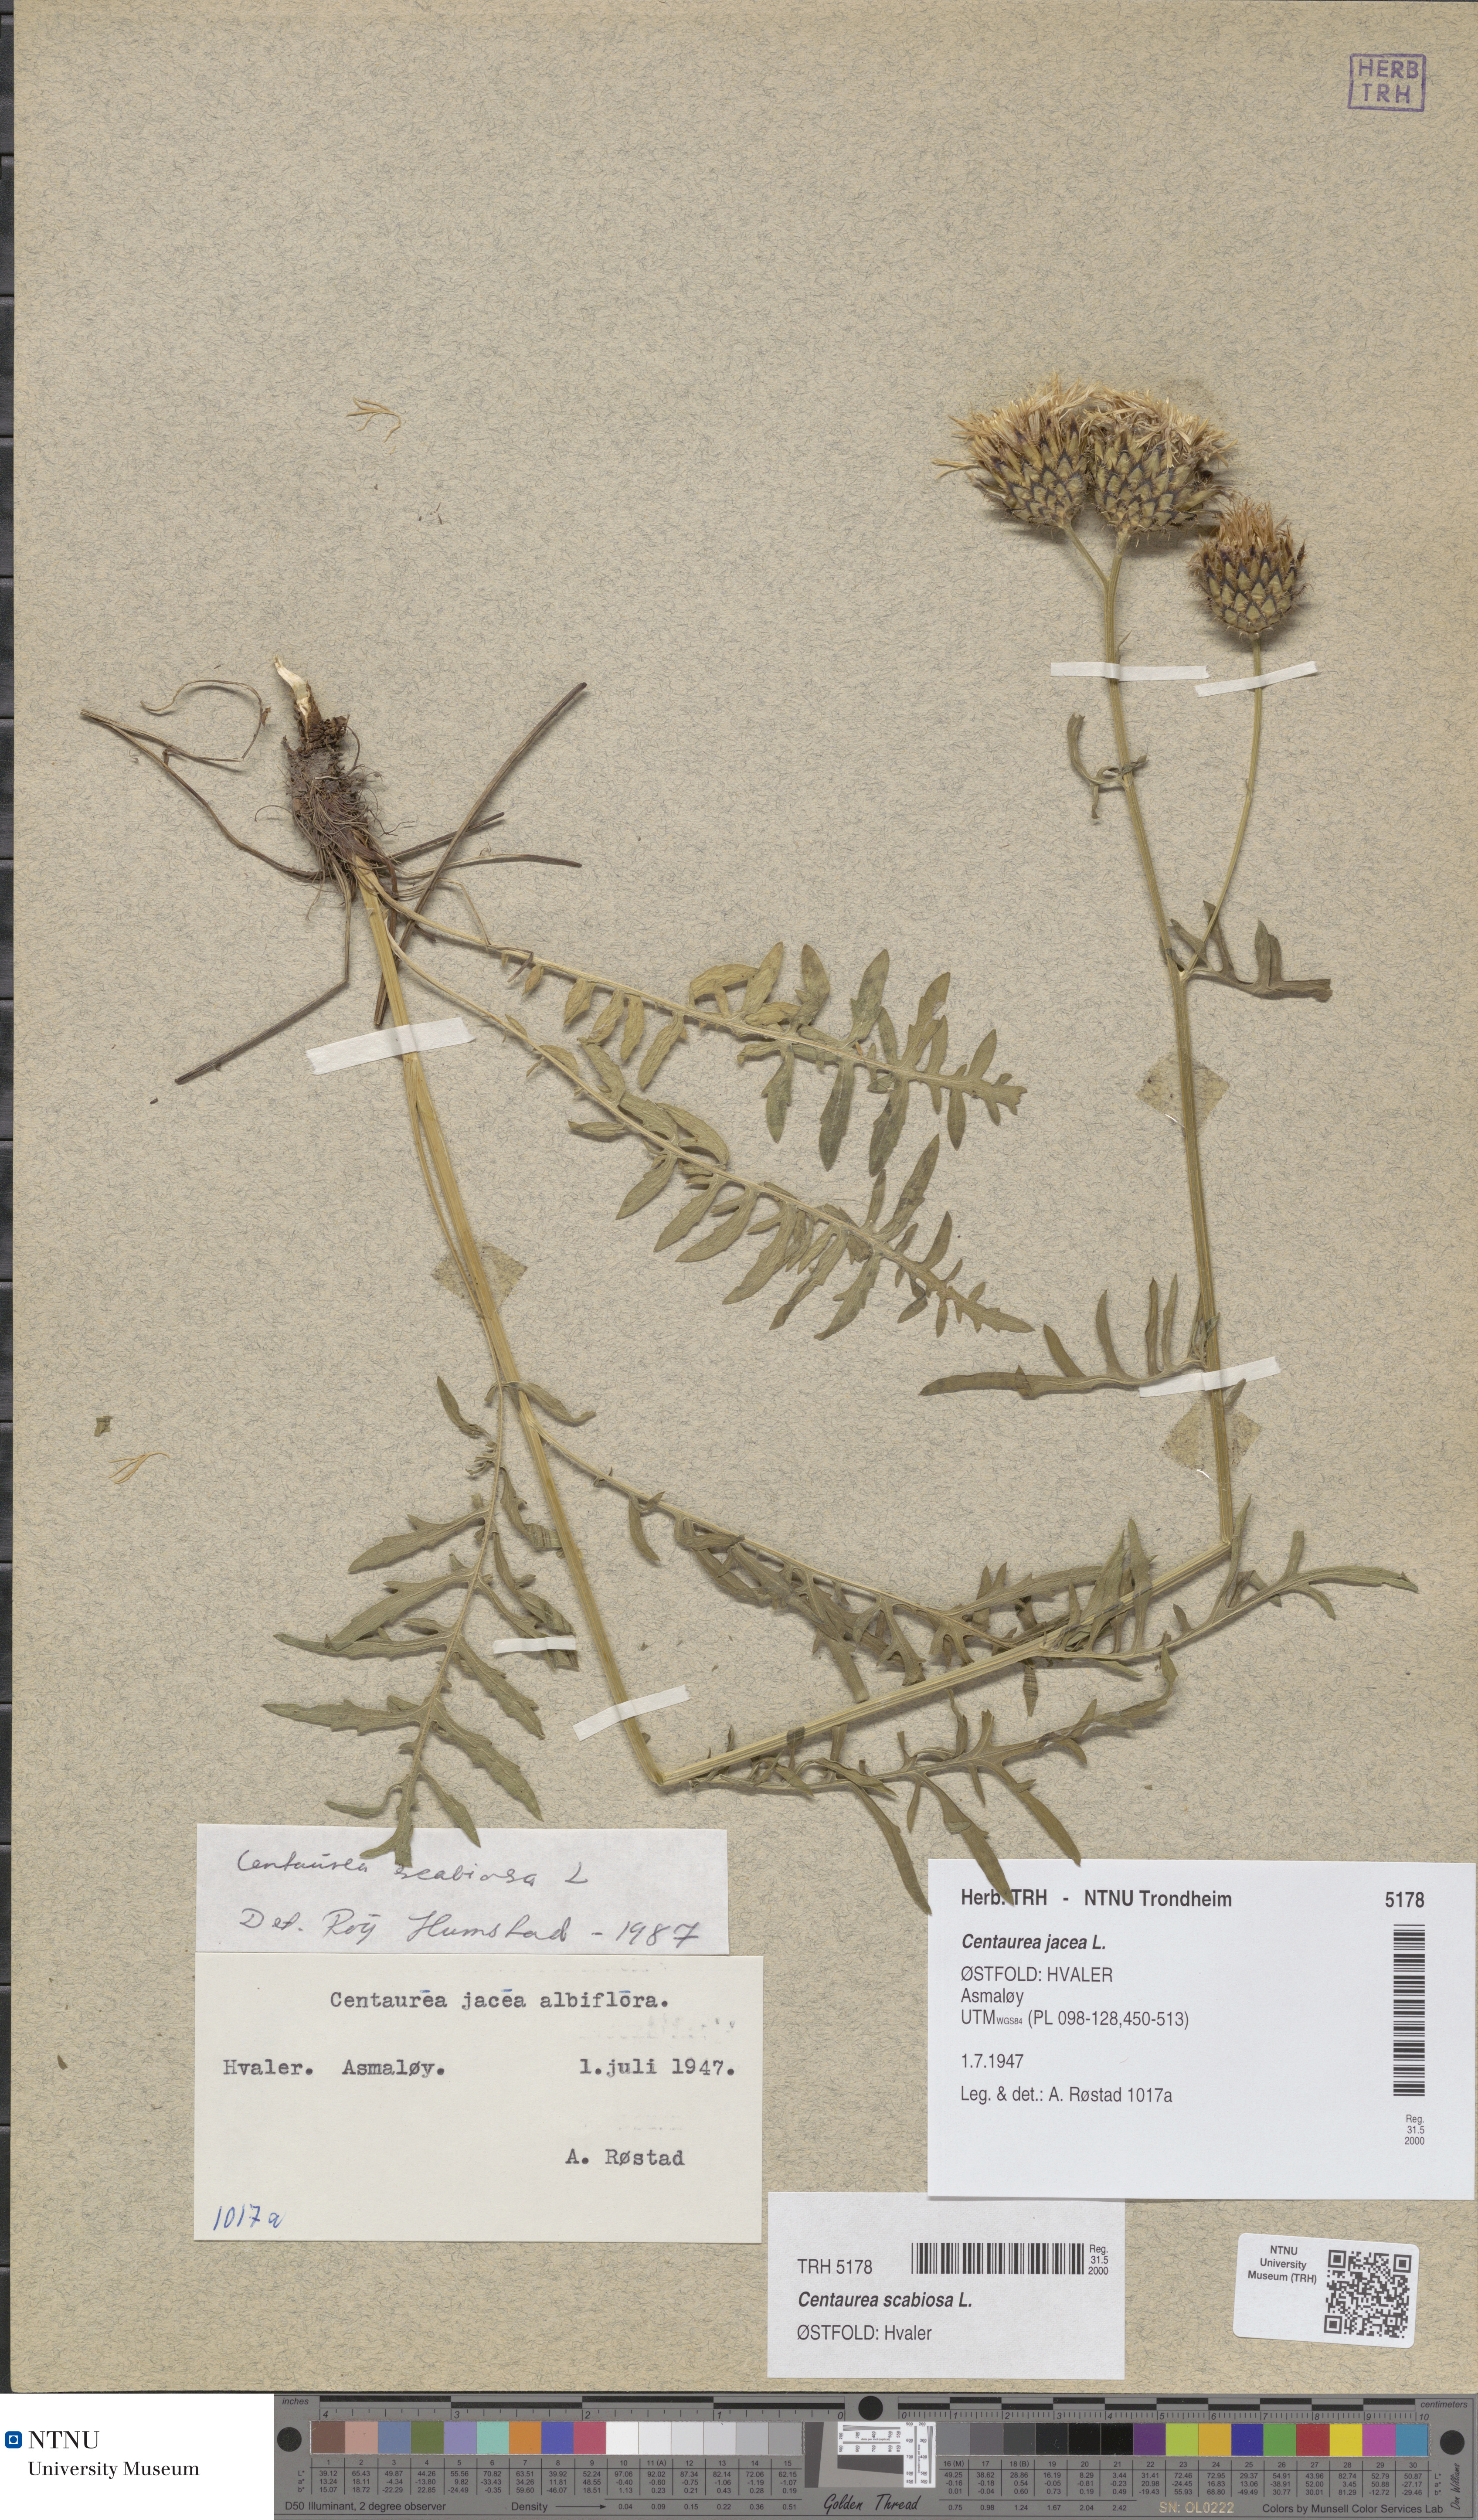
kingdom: Plantae
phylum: Tracheophyta
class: Magnoliopsida
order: Asterales
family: Asteraceae
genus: Centaurea
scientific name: Centaurea scabiosa
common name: Greater knapweed
